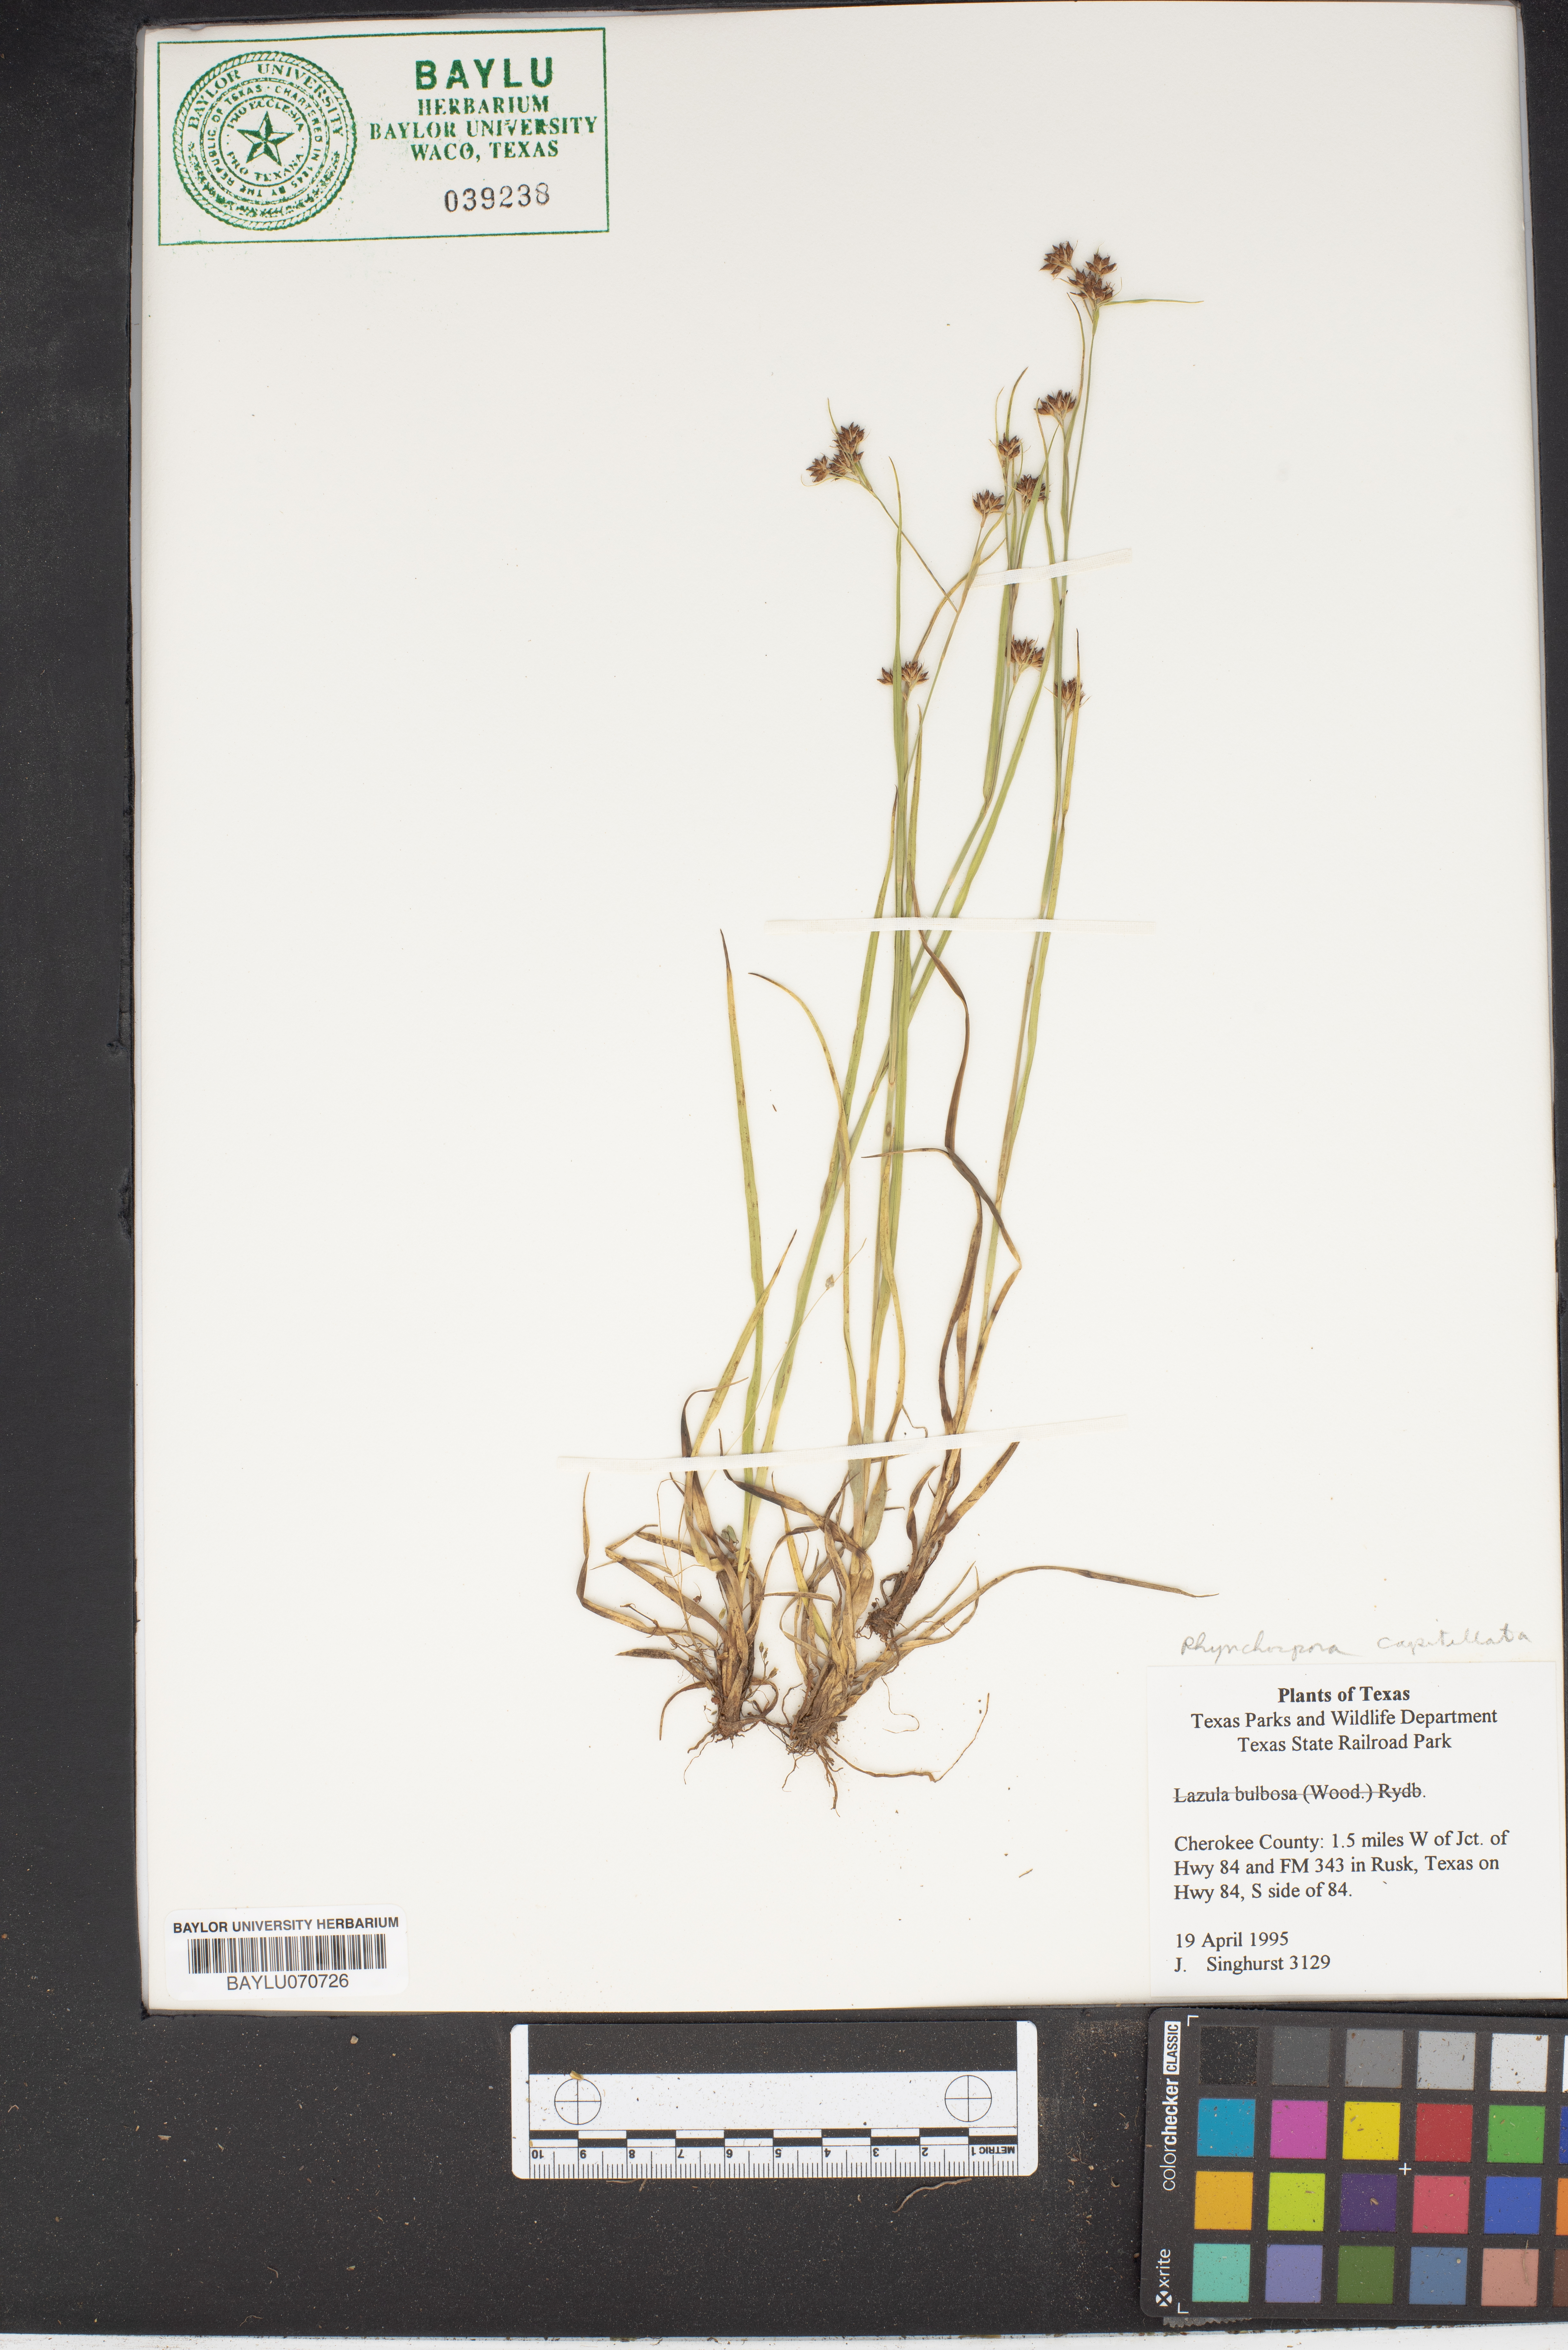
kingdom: Plantae
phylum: Tracheophyta
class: Liliopsida
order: Poales
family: Juncaceae
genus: Luzula
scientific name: Luzula bulbosa
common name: Bulbous woodrush
